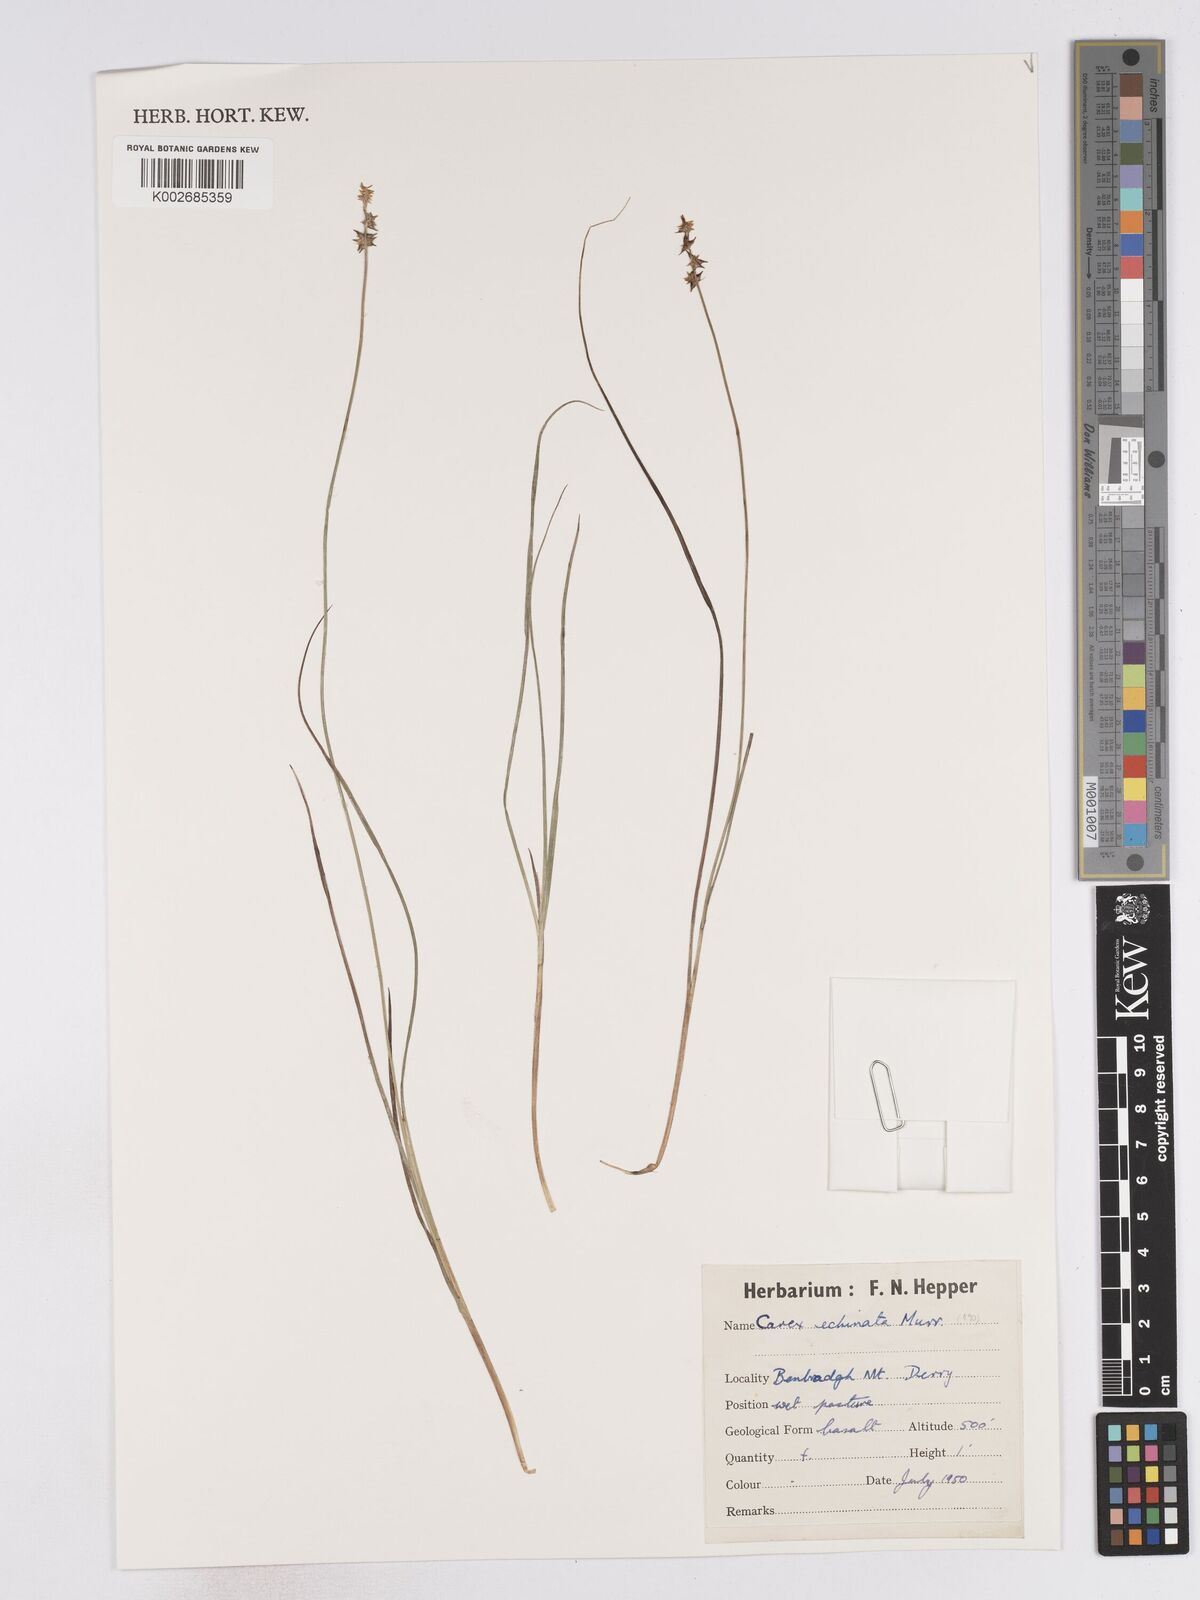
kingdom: Plantae
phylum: Tracheophyta
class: Liliopsida
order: Poales
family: Cyperaceae
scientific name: Cyperaceae
